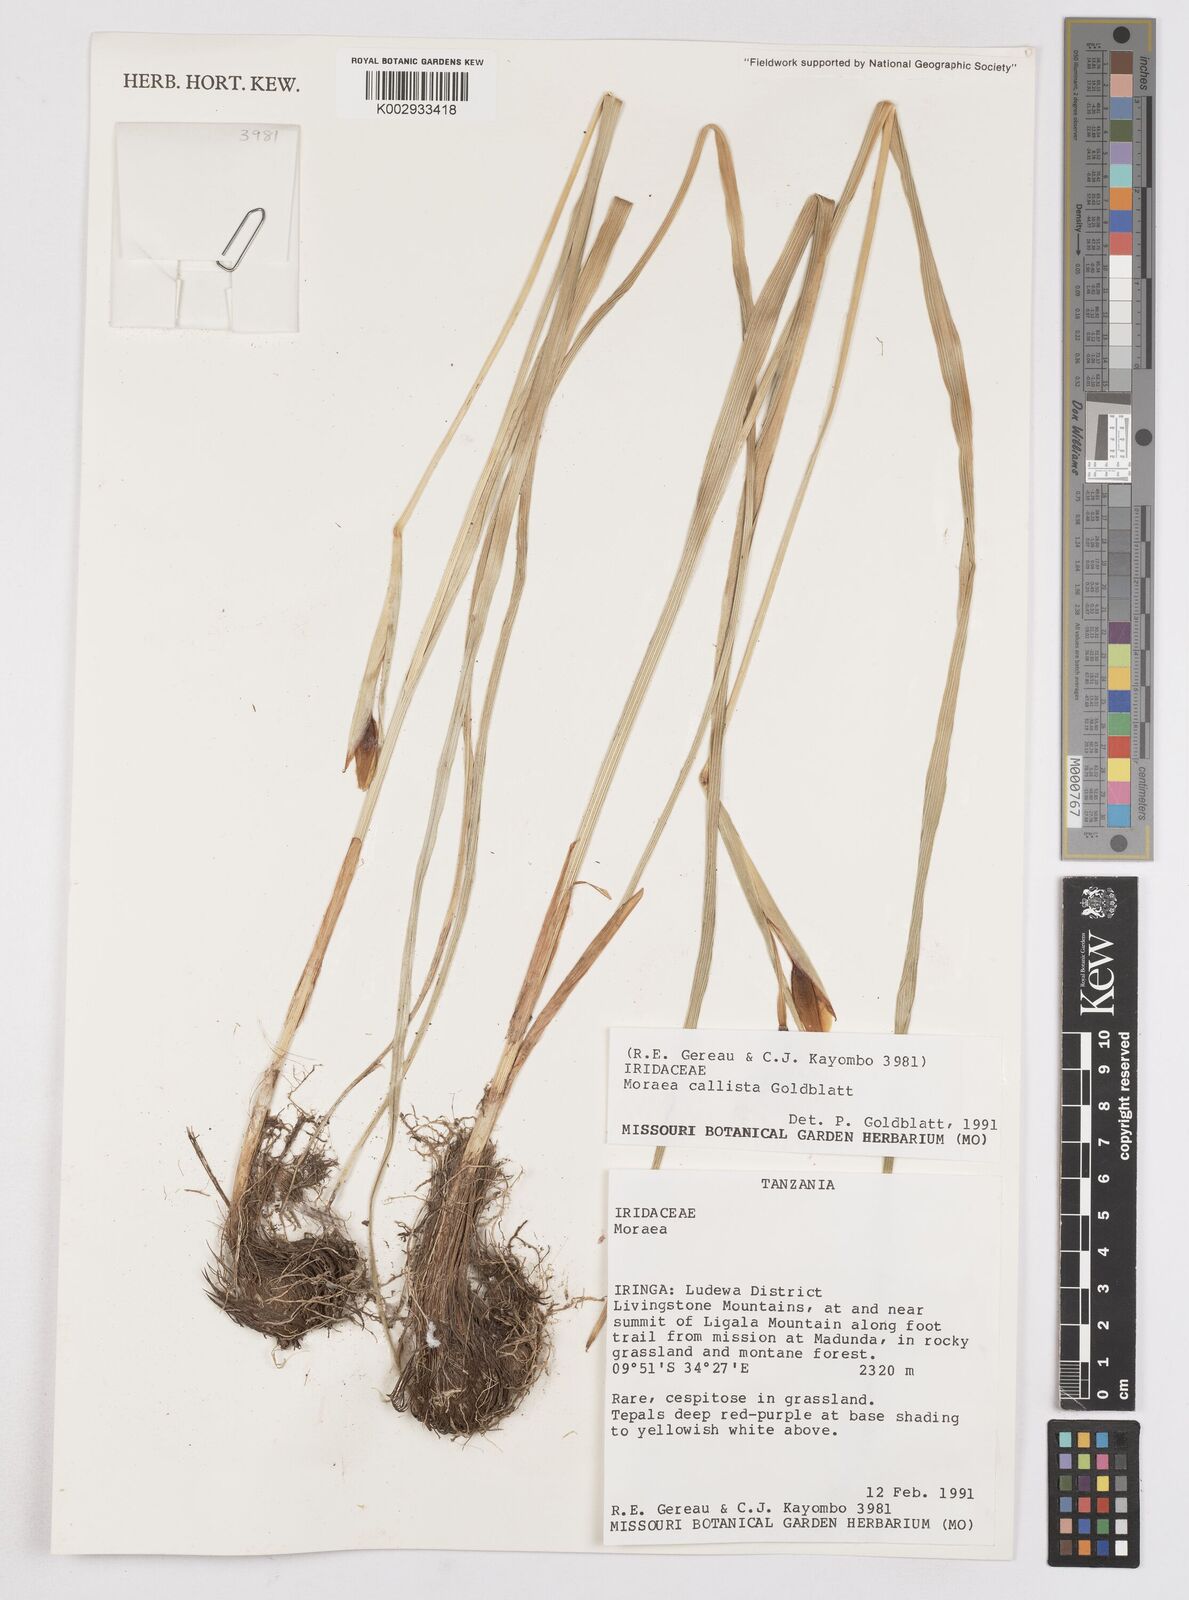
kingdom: Plantae
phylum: Tracheophyta
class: Liliopsida
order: Asparagales
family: Iridaceae
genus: Moraea
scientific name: Moraea callista
